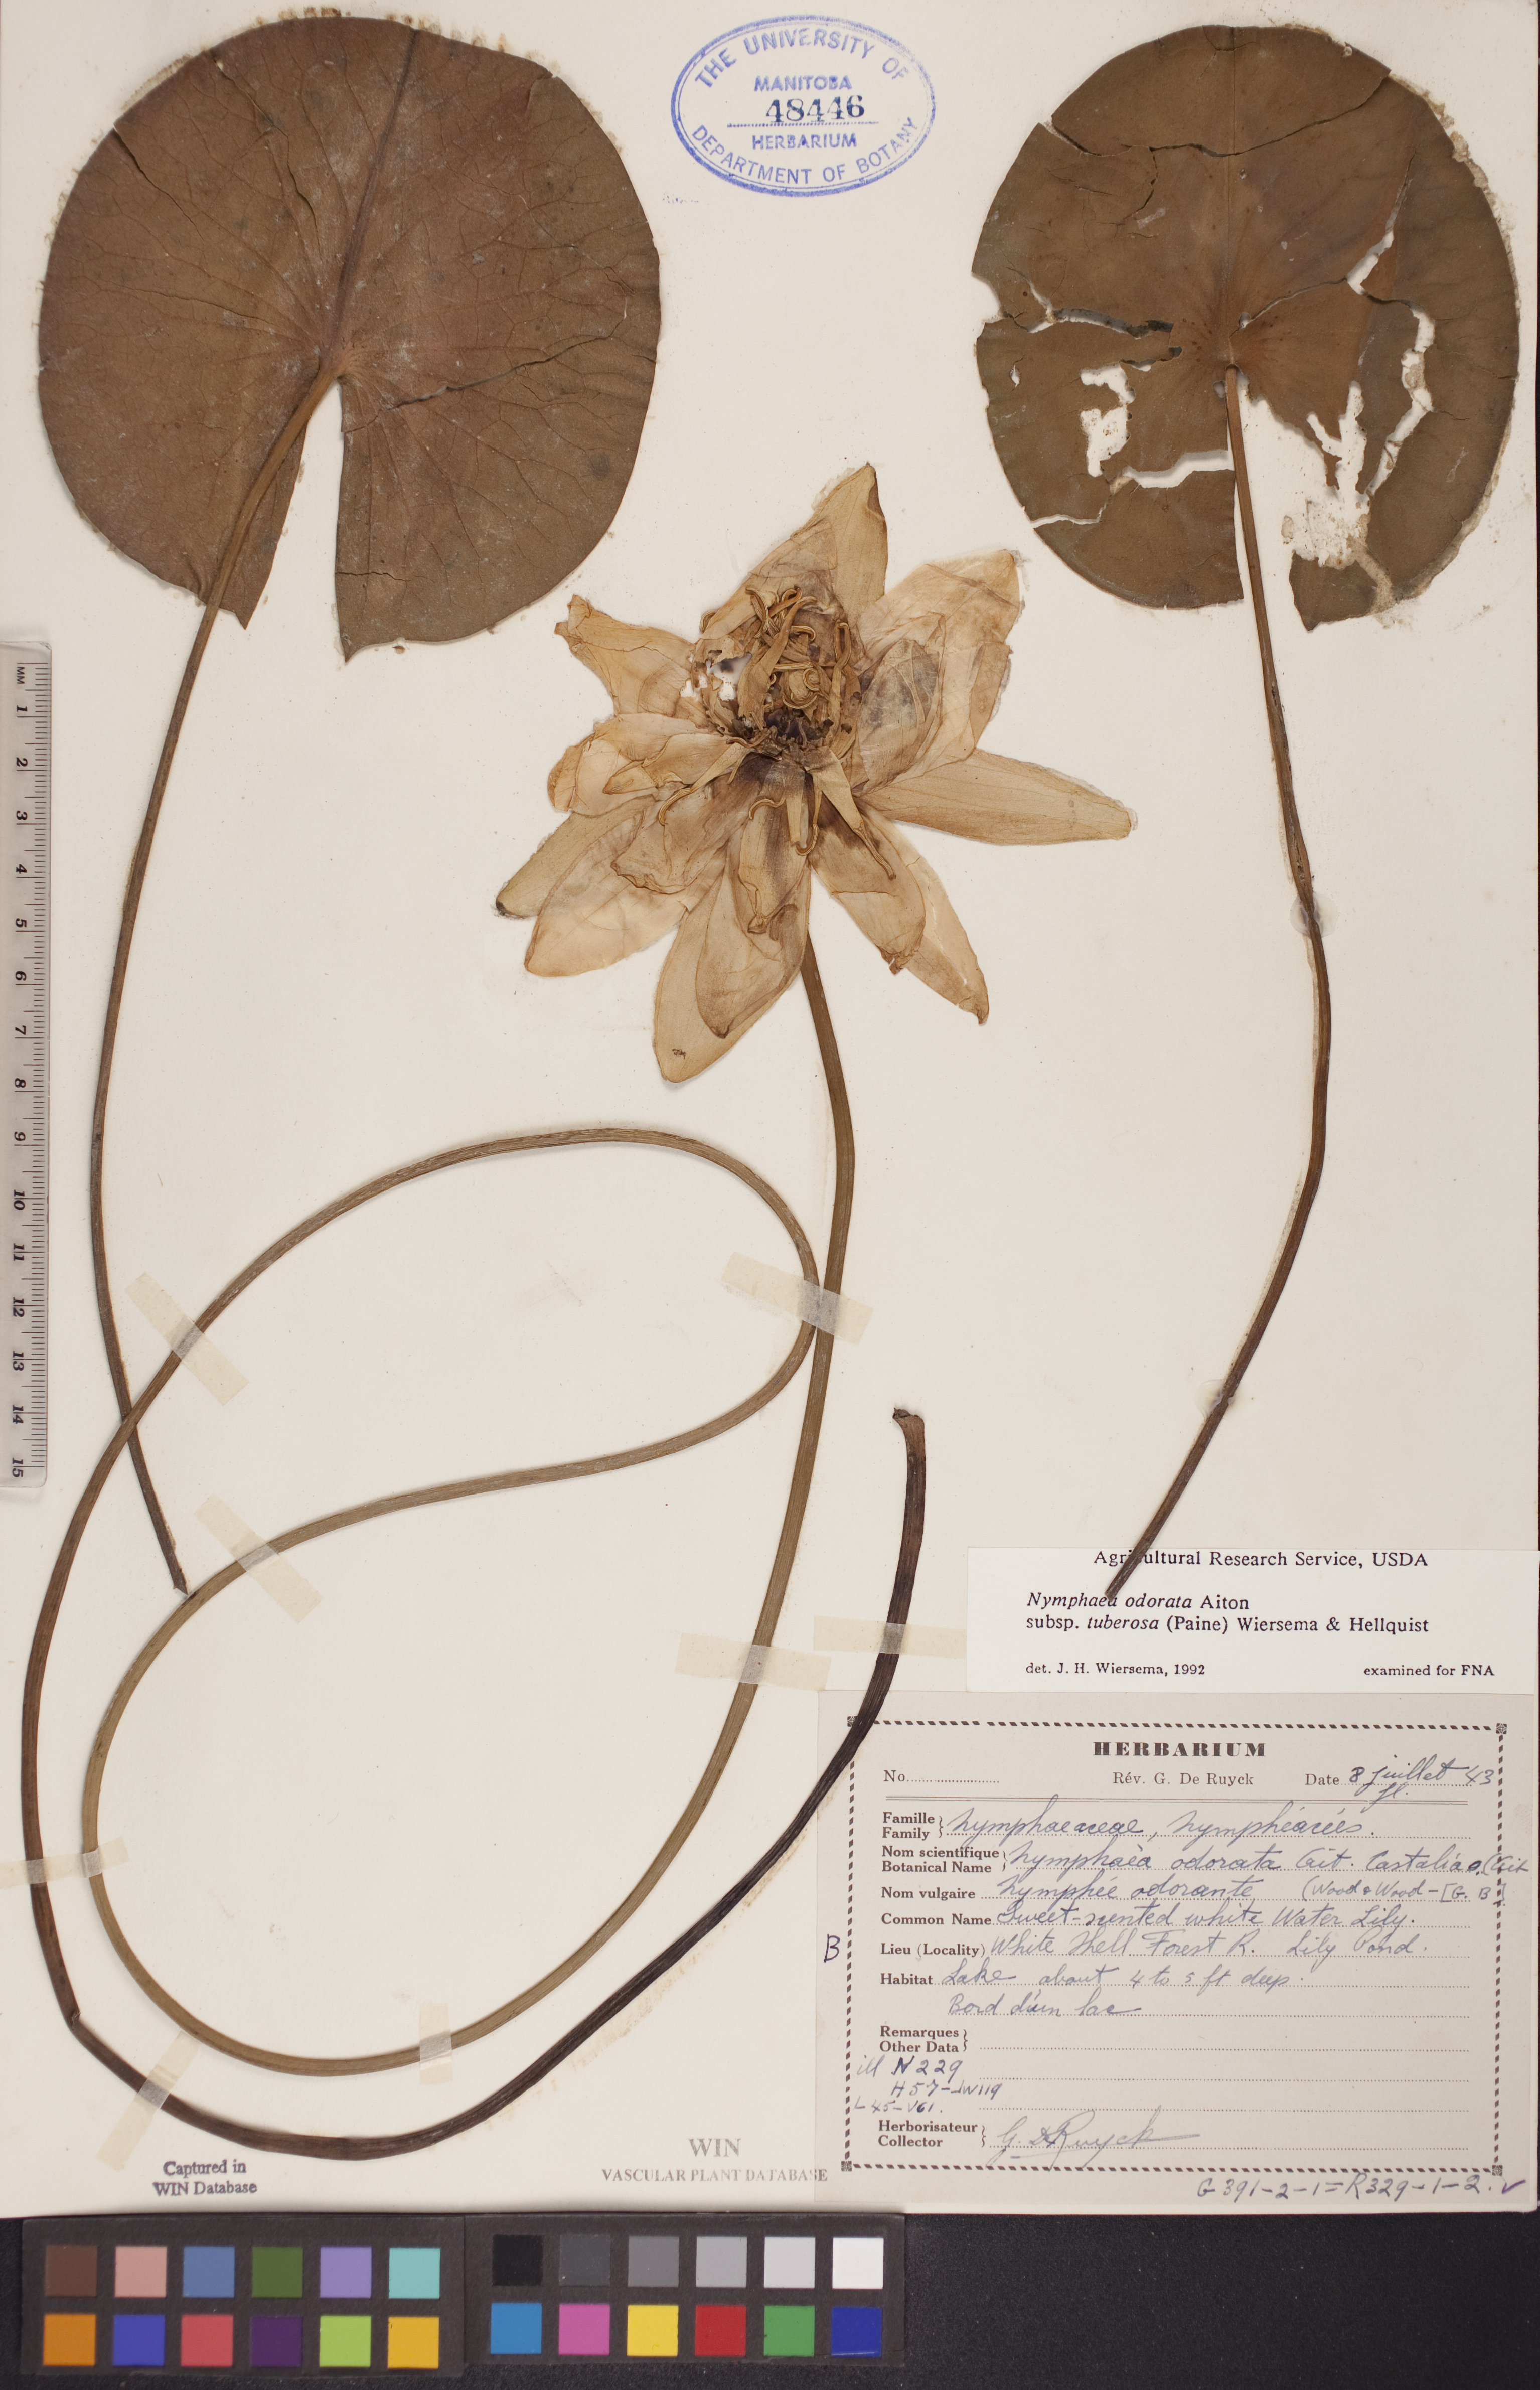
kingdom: Plantae
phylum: Tracheophyta
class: Magnoliopsida
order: Nymphaeales
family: Nymphaeaceae
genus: Nymphaea
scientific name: Nymphaea odorata
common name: Fragrant water-lily
